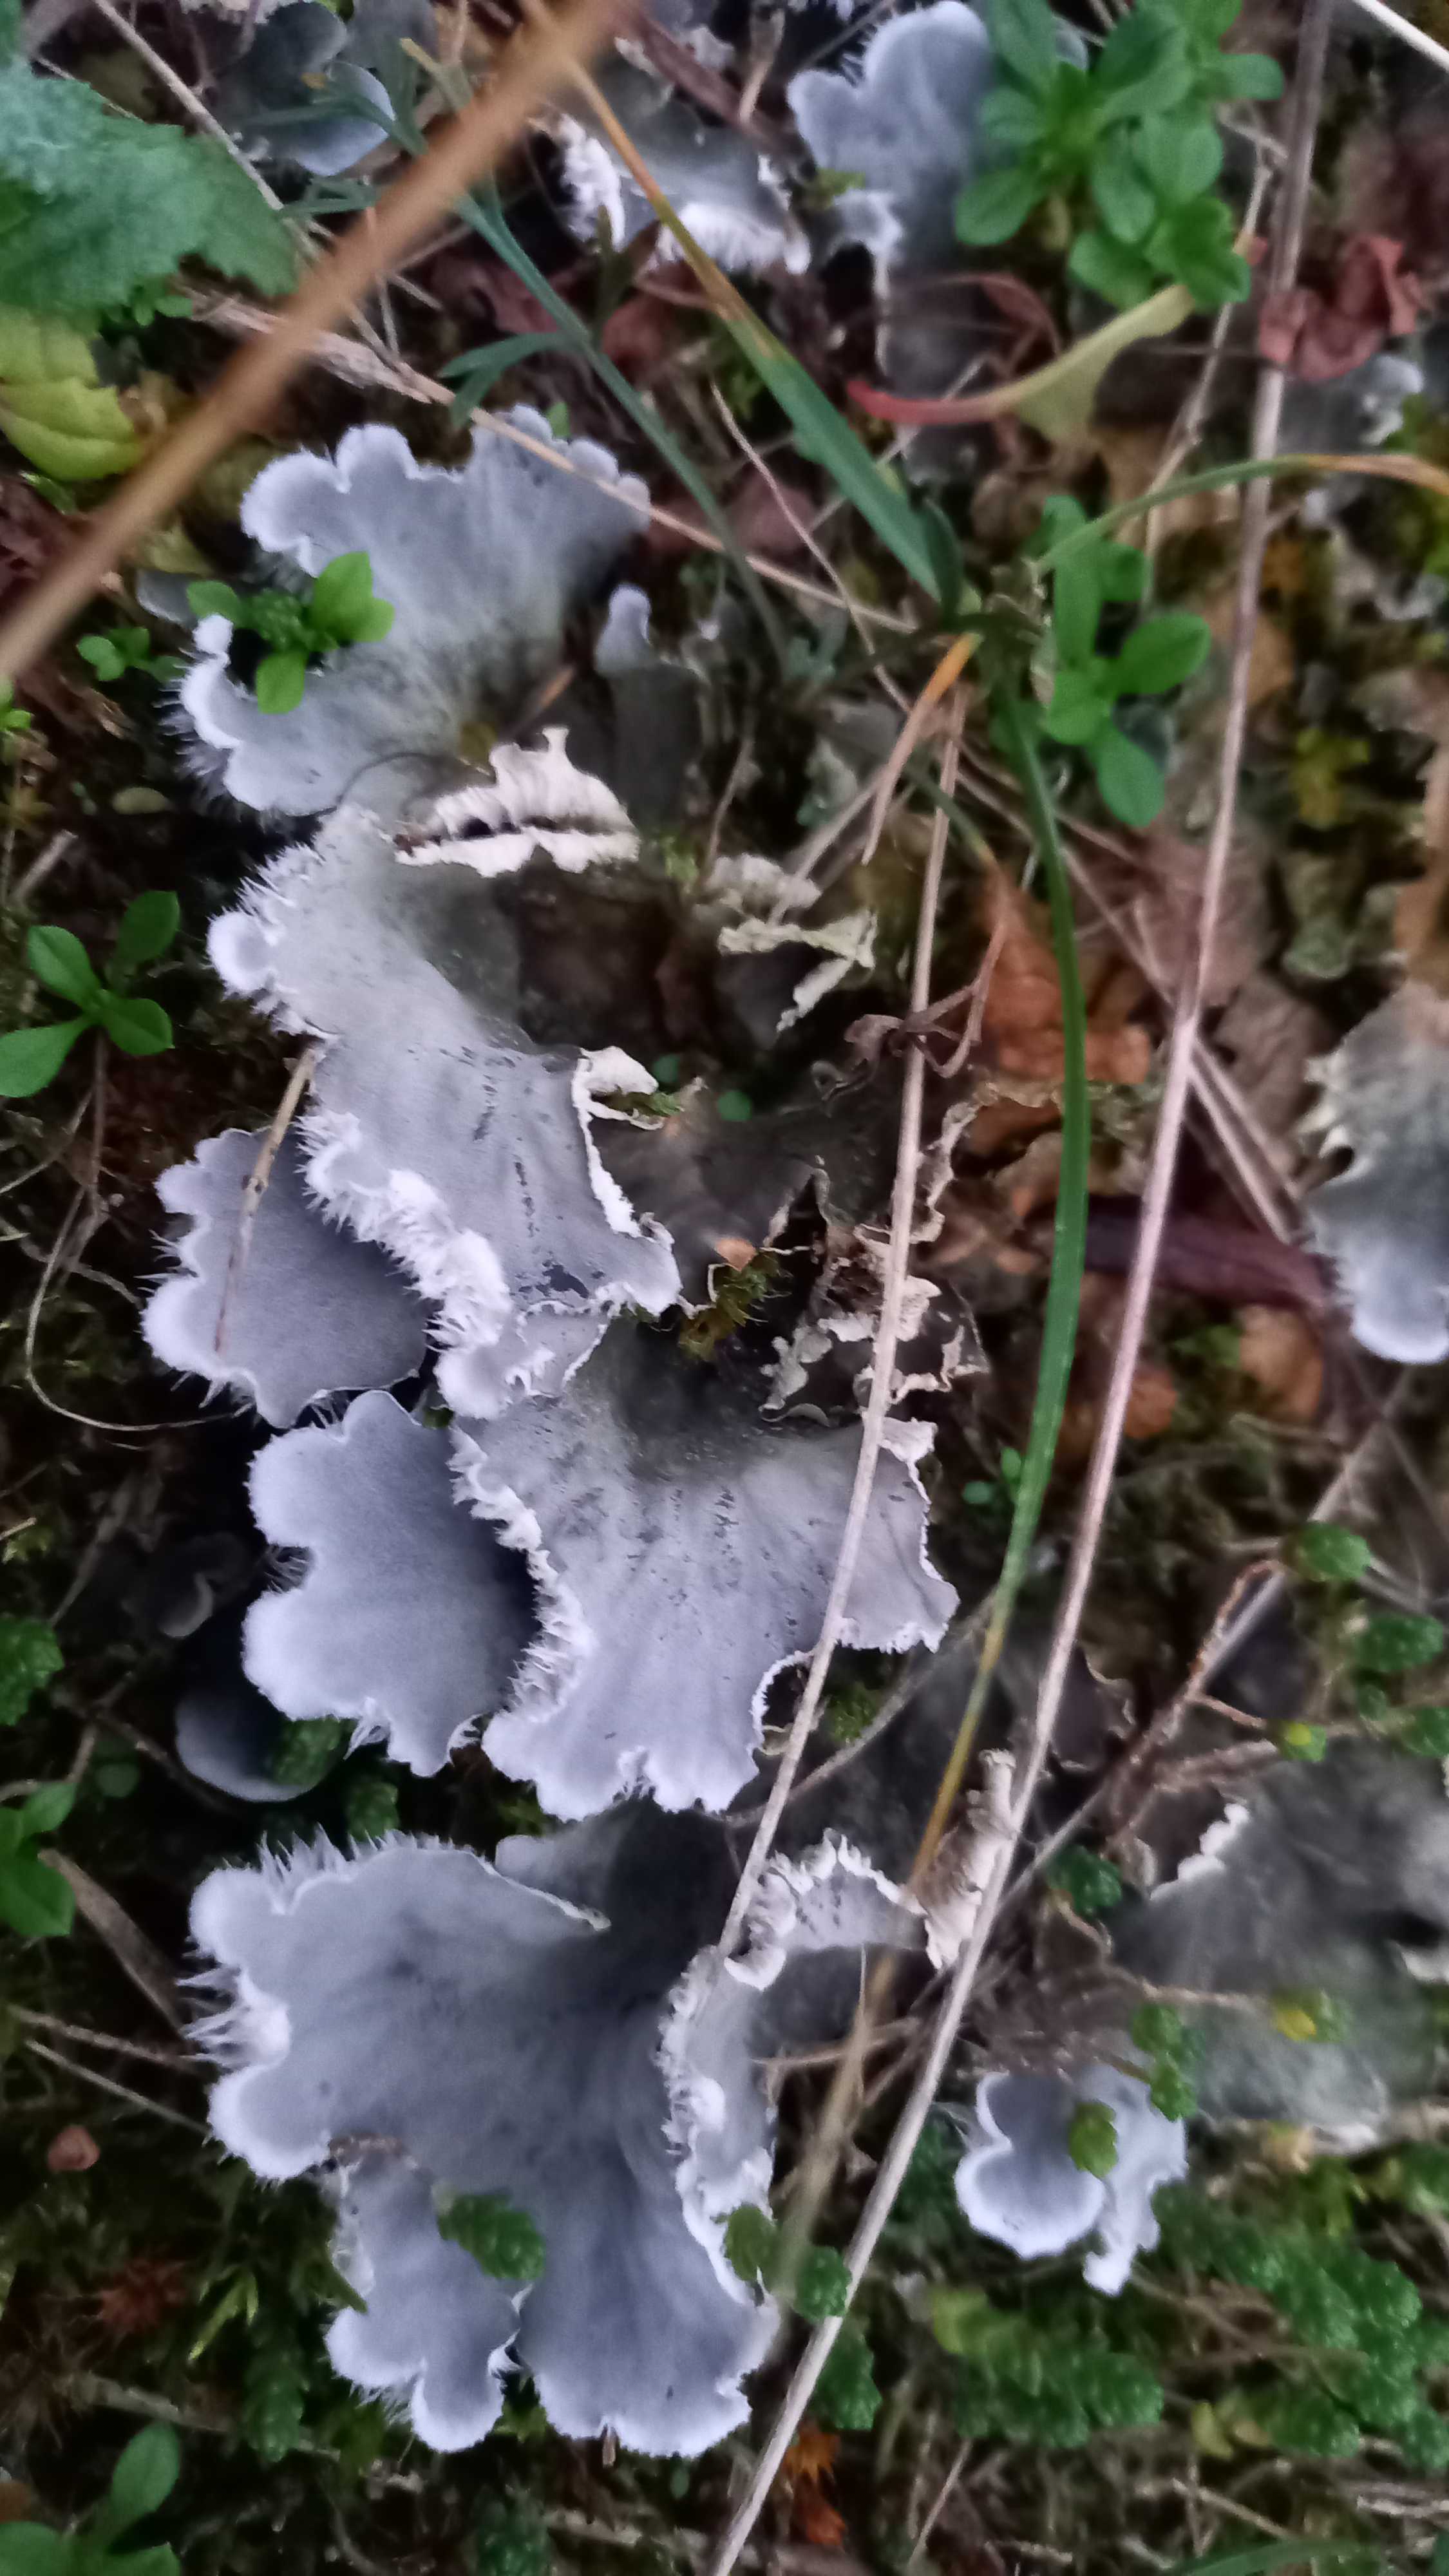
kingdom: Fungi
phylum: Ascomycota
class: Lecanoromycetes
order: Peltigerales
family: Peltigeraceae
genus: Peltigera
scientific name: Peltigera canina
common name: hunde-skjoldlav
